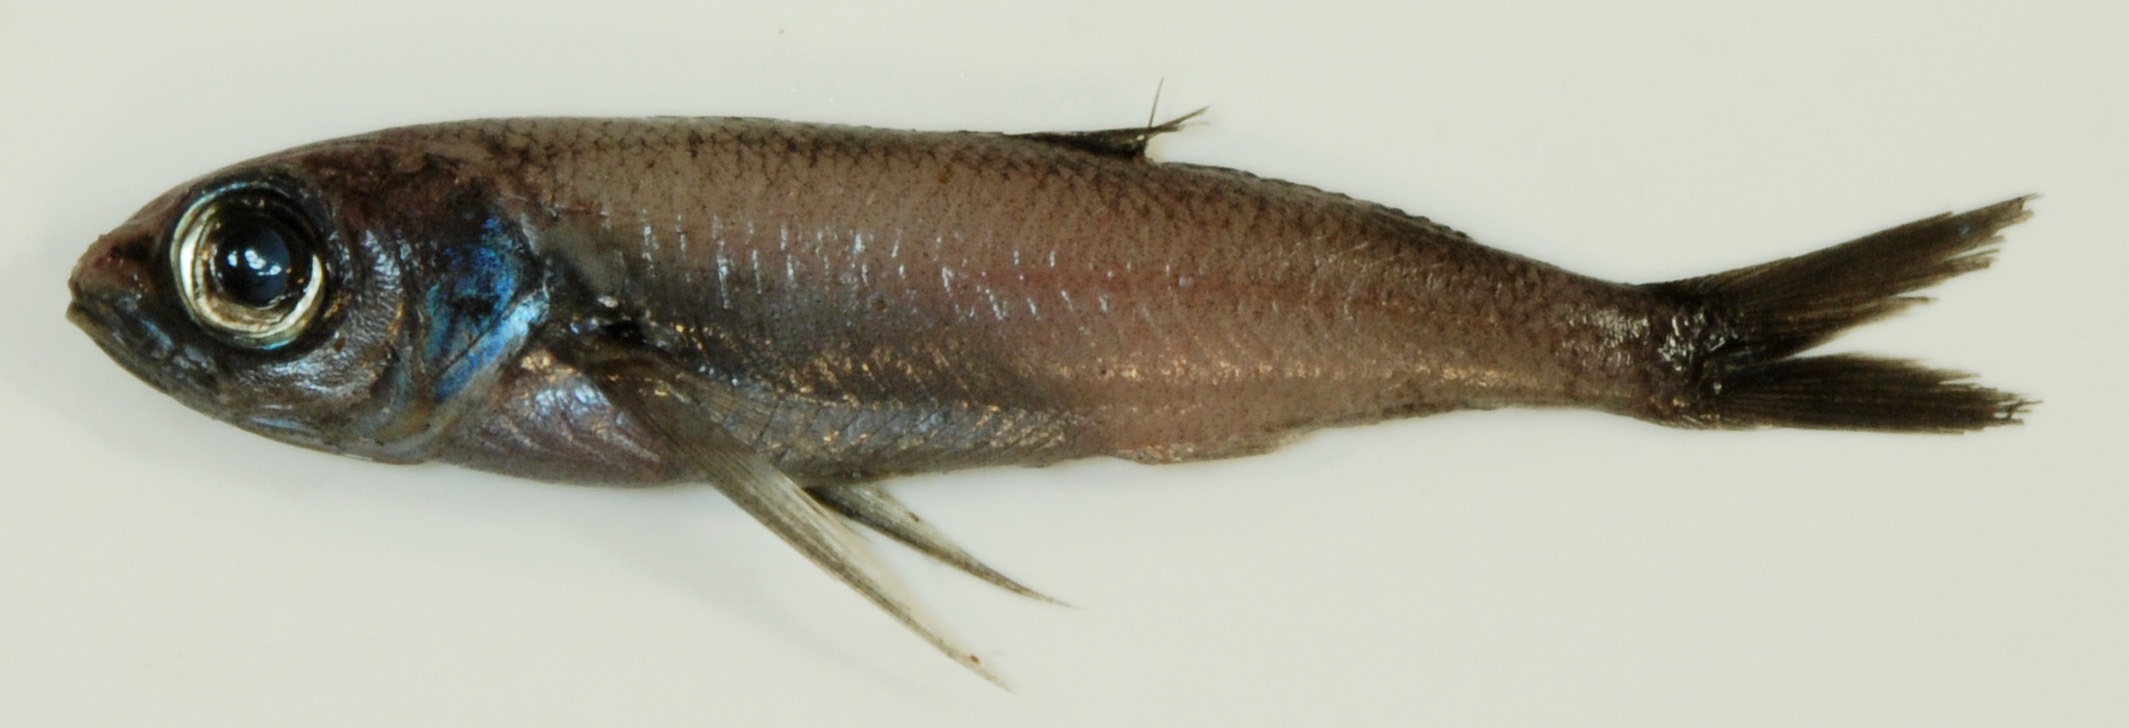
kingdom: Animalia
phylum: Chordata
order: Perciformes
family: Nomeidae
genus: Cubiceps
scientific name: Cubiceps pauciradiatus
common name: Bigeye cigarfish
